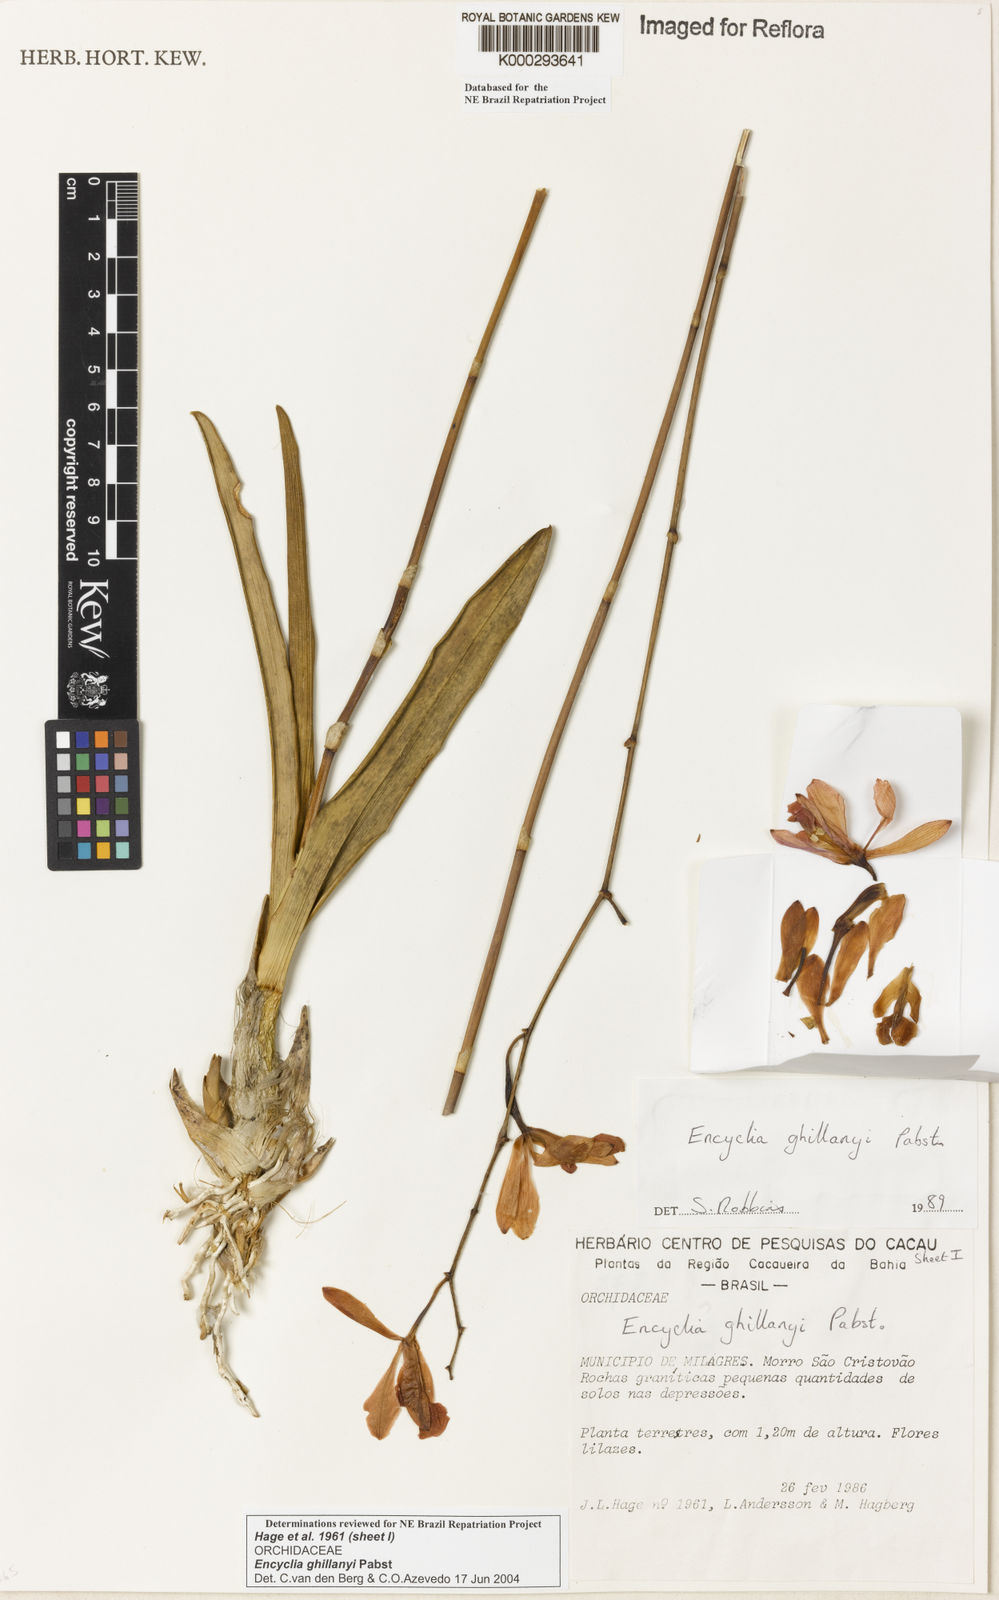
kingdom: Plantae
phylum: Tracheophyta
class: Liliopsida
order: Asparagales
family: Orchidaceae
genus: Encyclia
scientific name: Encyclia jenischiana
